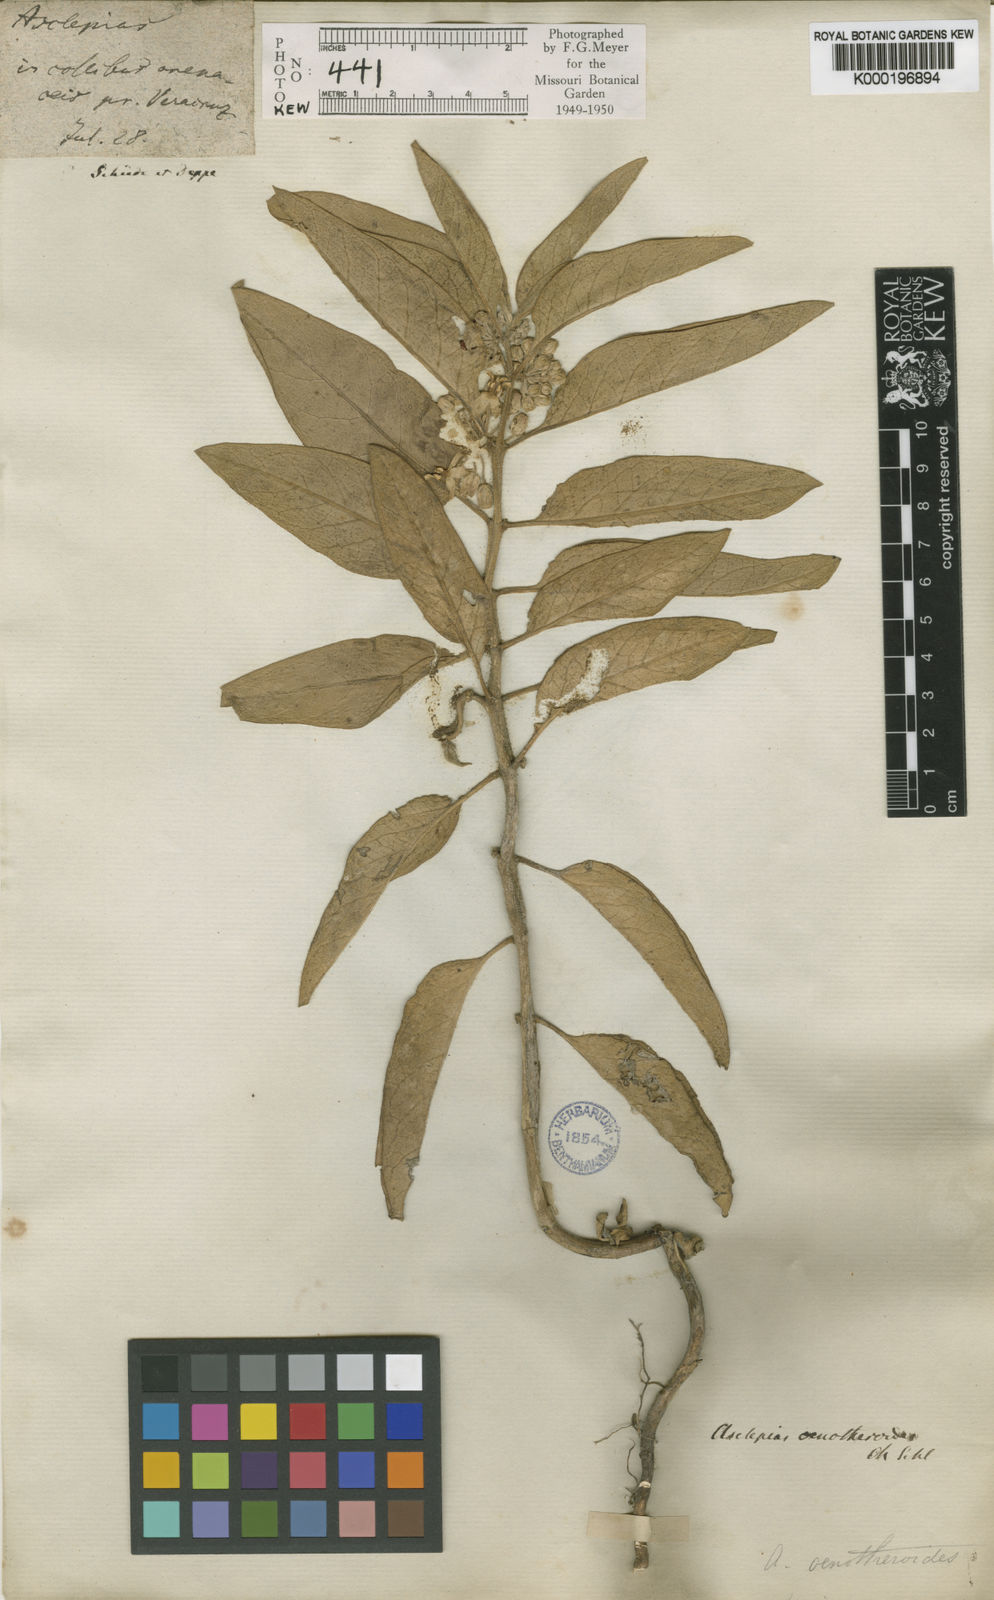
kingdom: Plantae
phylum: Tracheophyta
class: Magnoliopsida
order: Gentianales
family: Apocynaceae
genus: Asclepias
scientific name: Asclepias oenotheroides
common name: Zizotes milkweed
